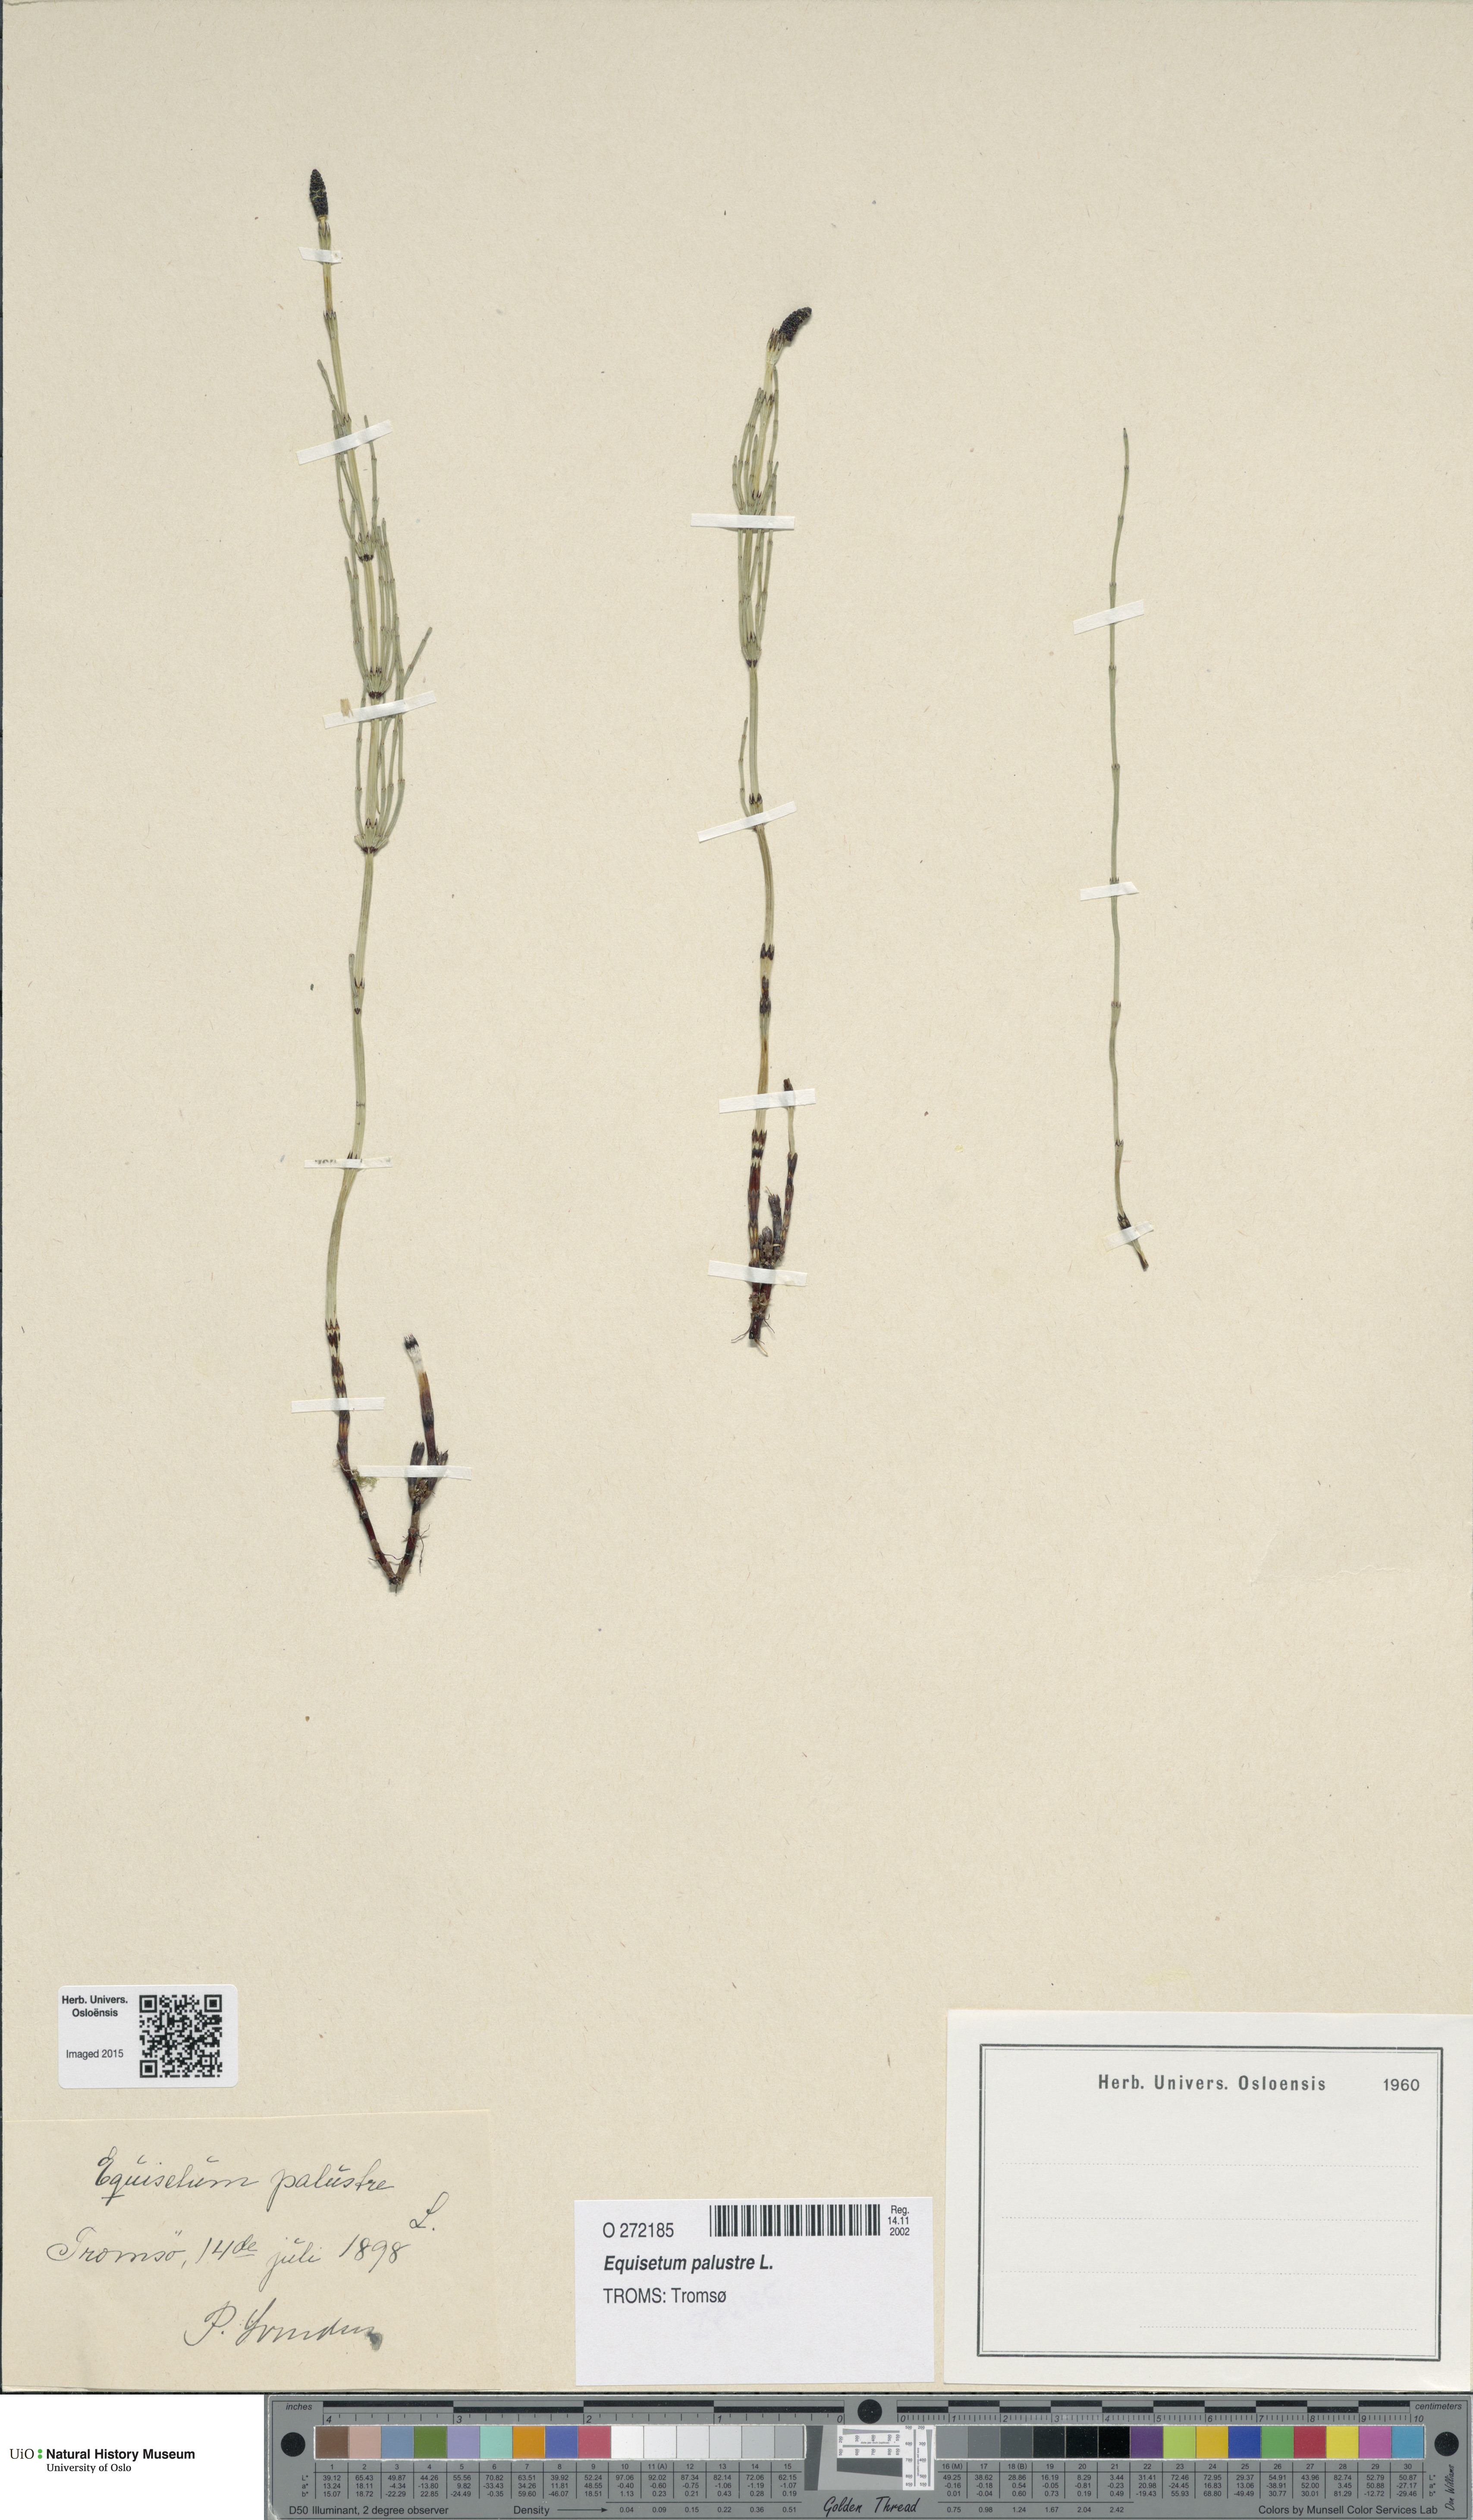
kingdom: Plantae
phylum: Tracheophyta
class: Polypodiopsida
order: Equisetales
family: Equisetaceae
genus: Equisetum
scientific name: Equisetum palustre
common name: Marsh horsetail
